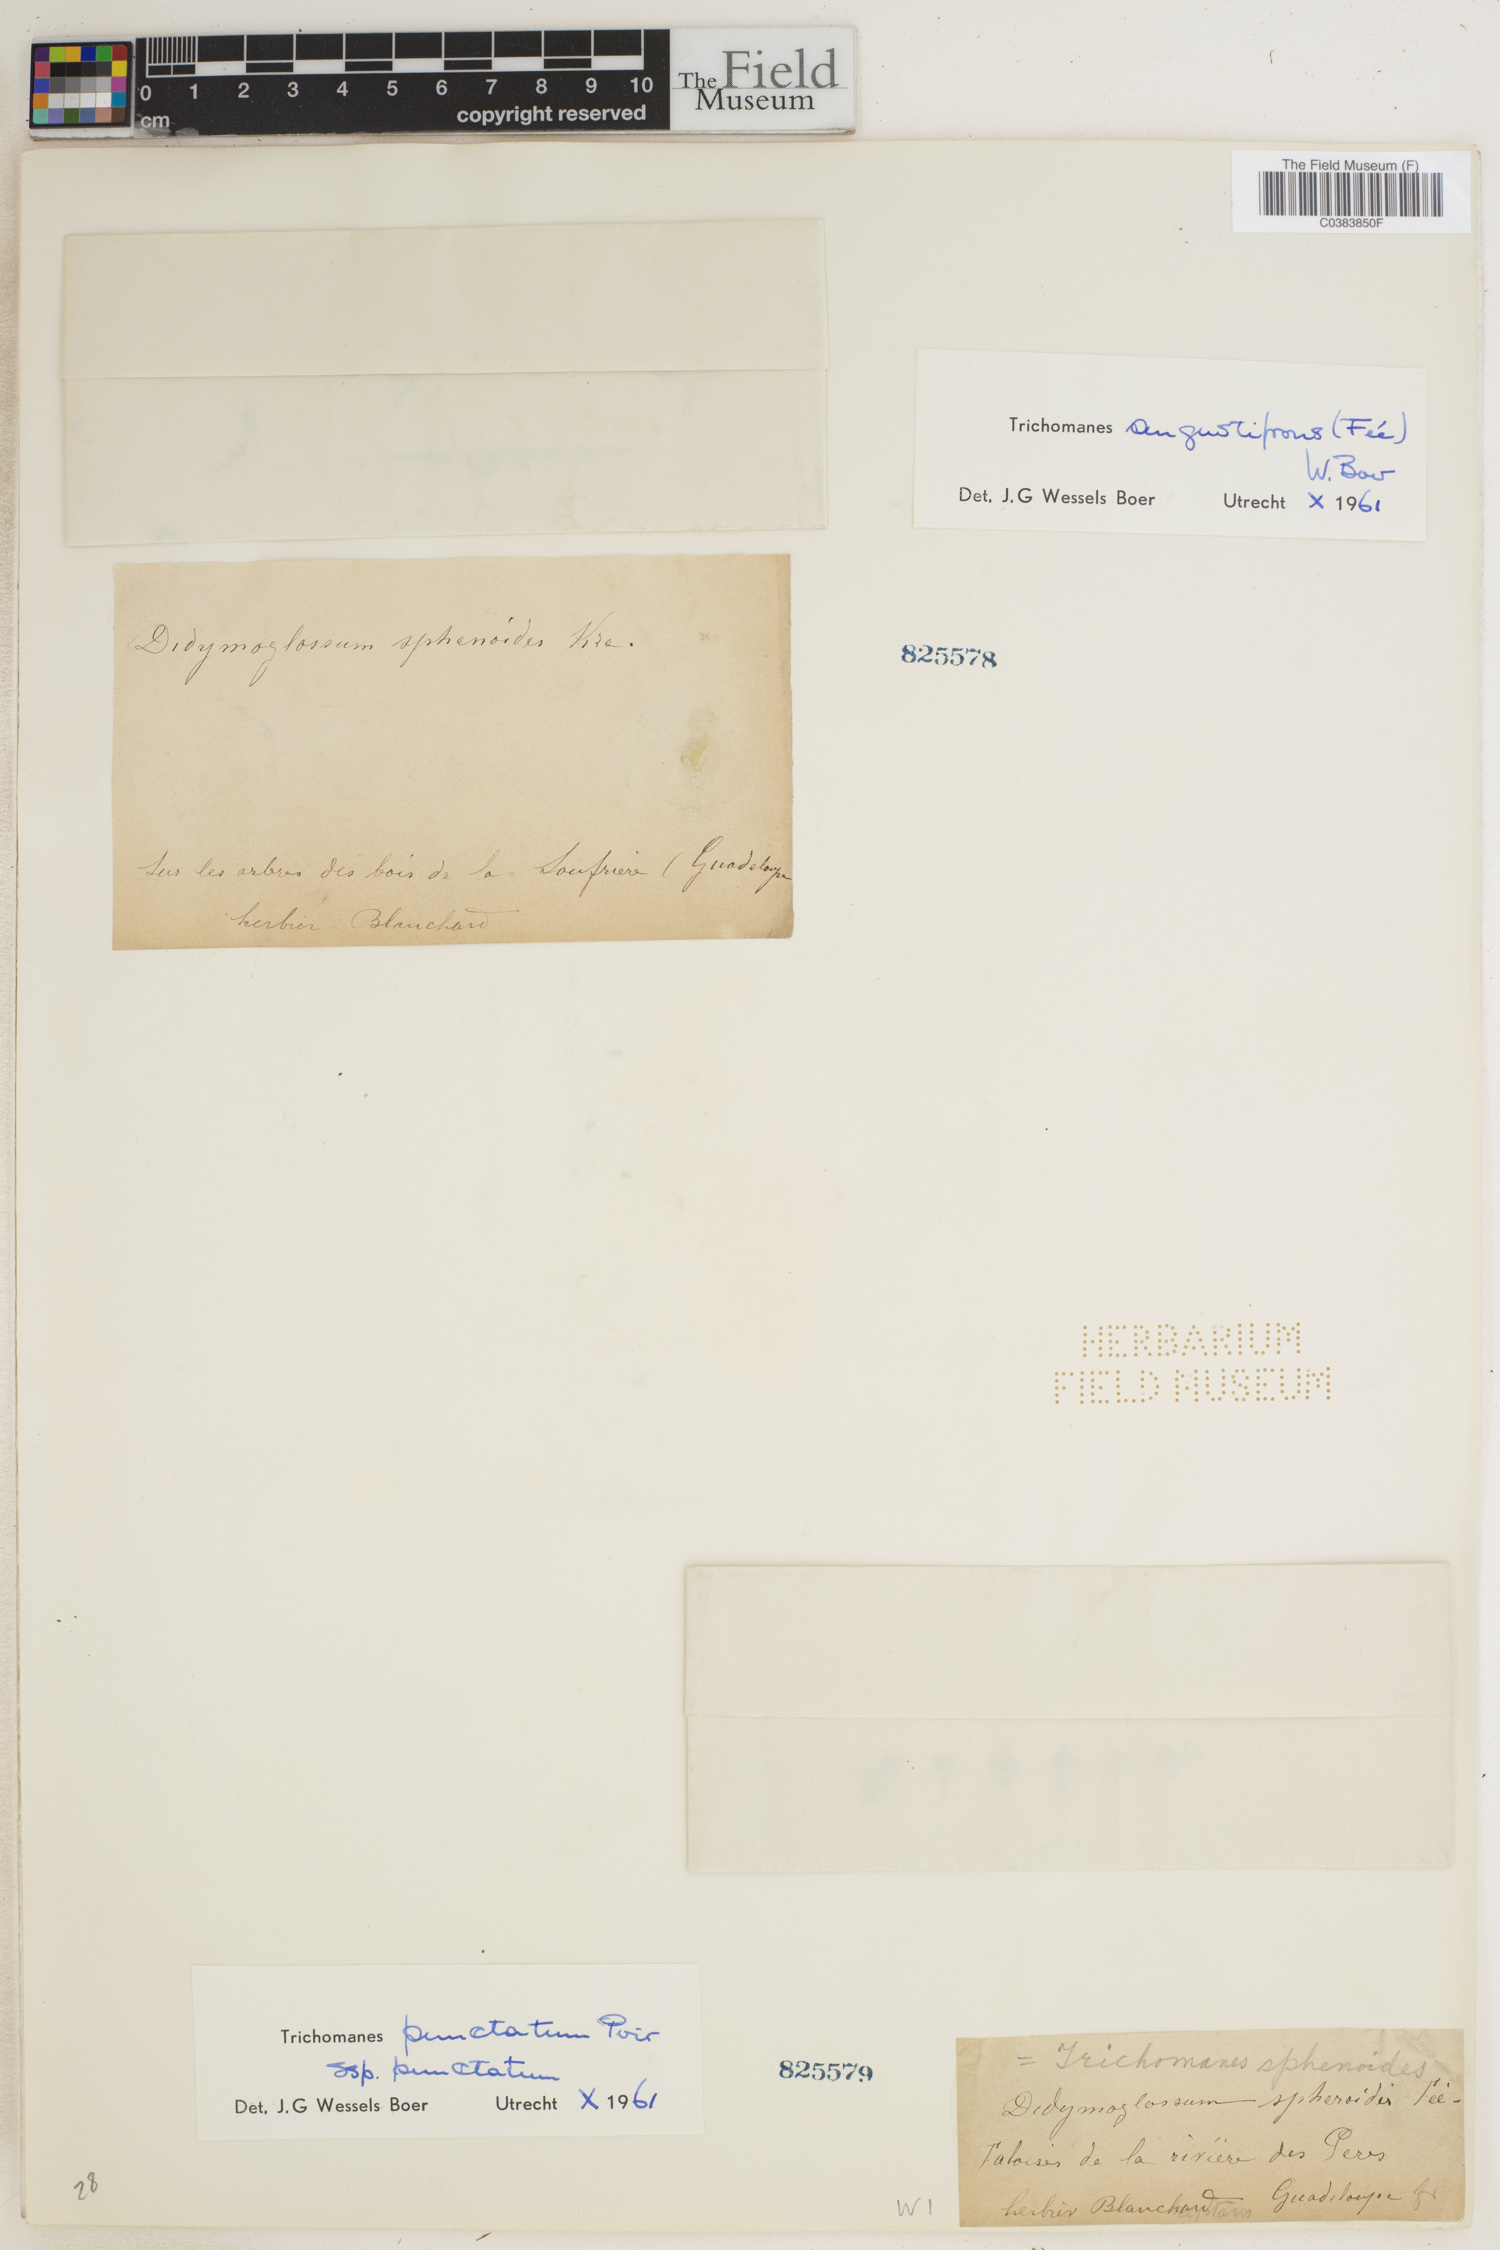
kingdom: Plantae
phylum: Tracheophyta
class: Polypodiopsida
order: Hymenophyllales
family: Hymenophyllaceae
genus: Didymoglossum
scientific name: Didymoglossum angustifrons
